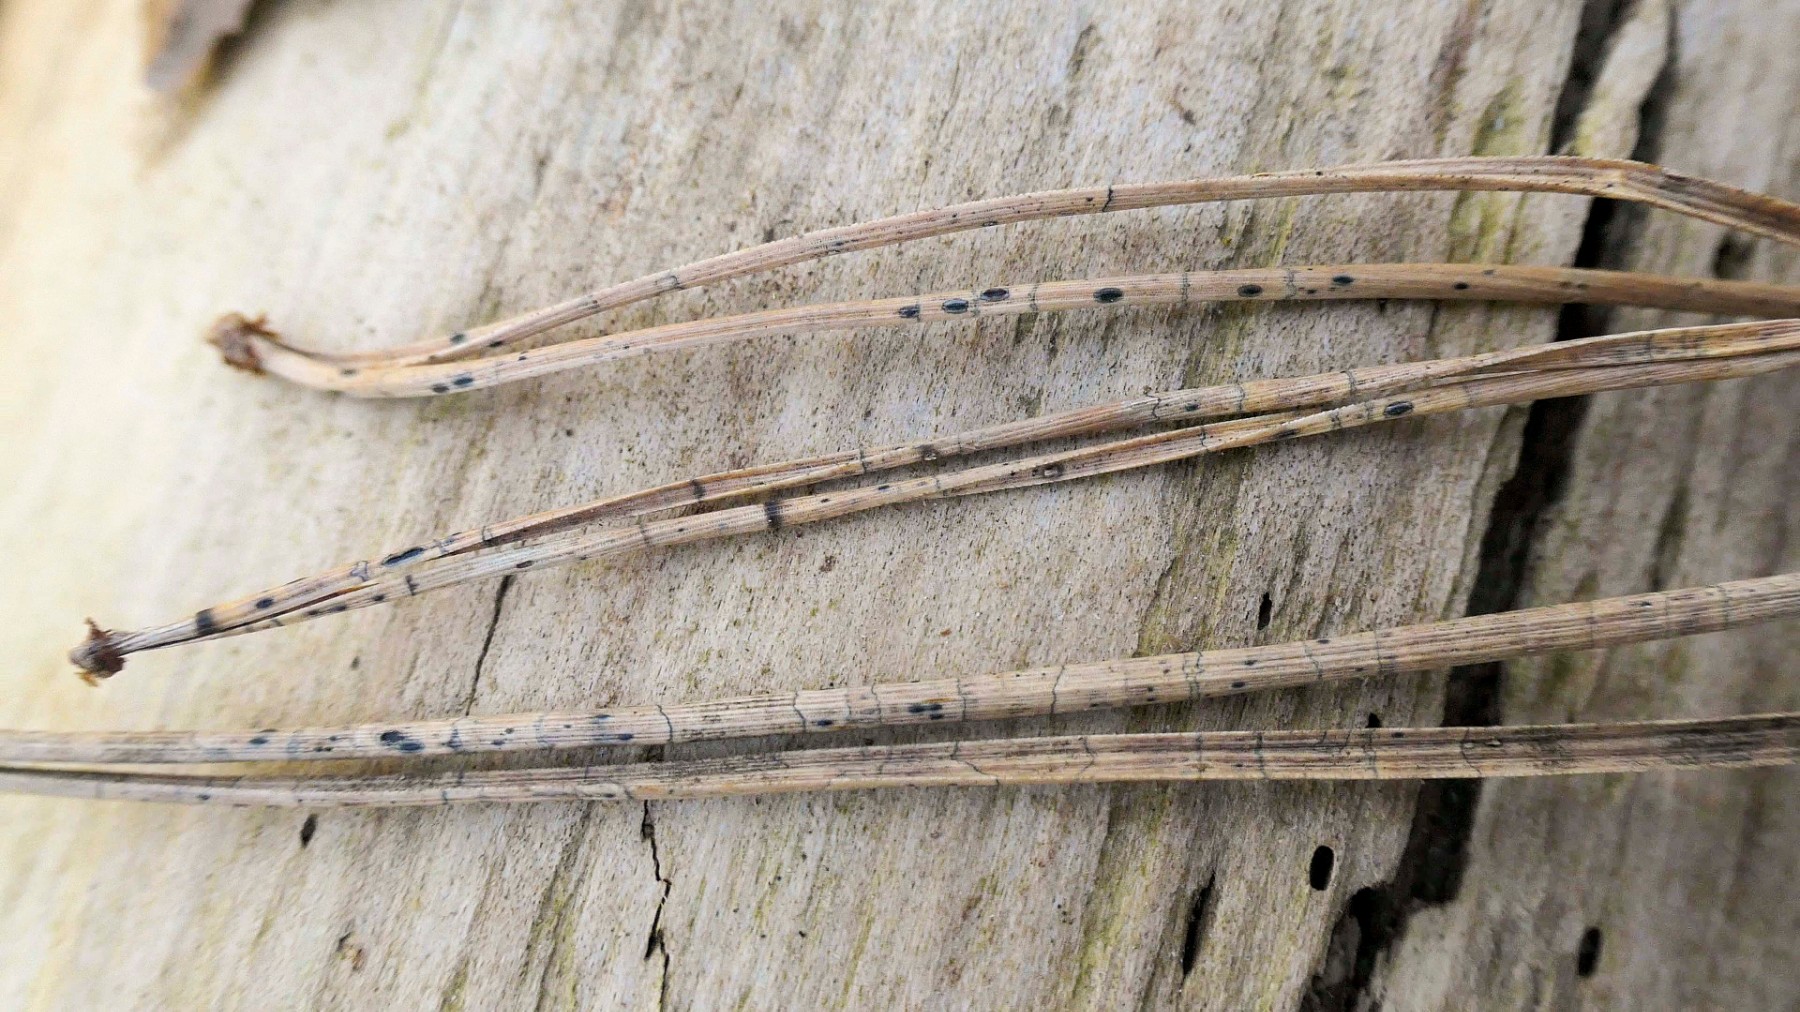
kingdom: Fungi
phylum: Ascomycota
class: Leotiomycetes
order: Rhytismatales
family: Rhytismataceae
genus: Lophodermium
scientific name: Lophodermium pinastri
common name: fyrre-fureplet
